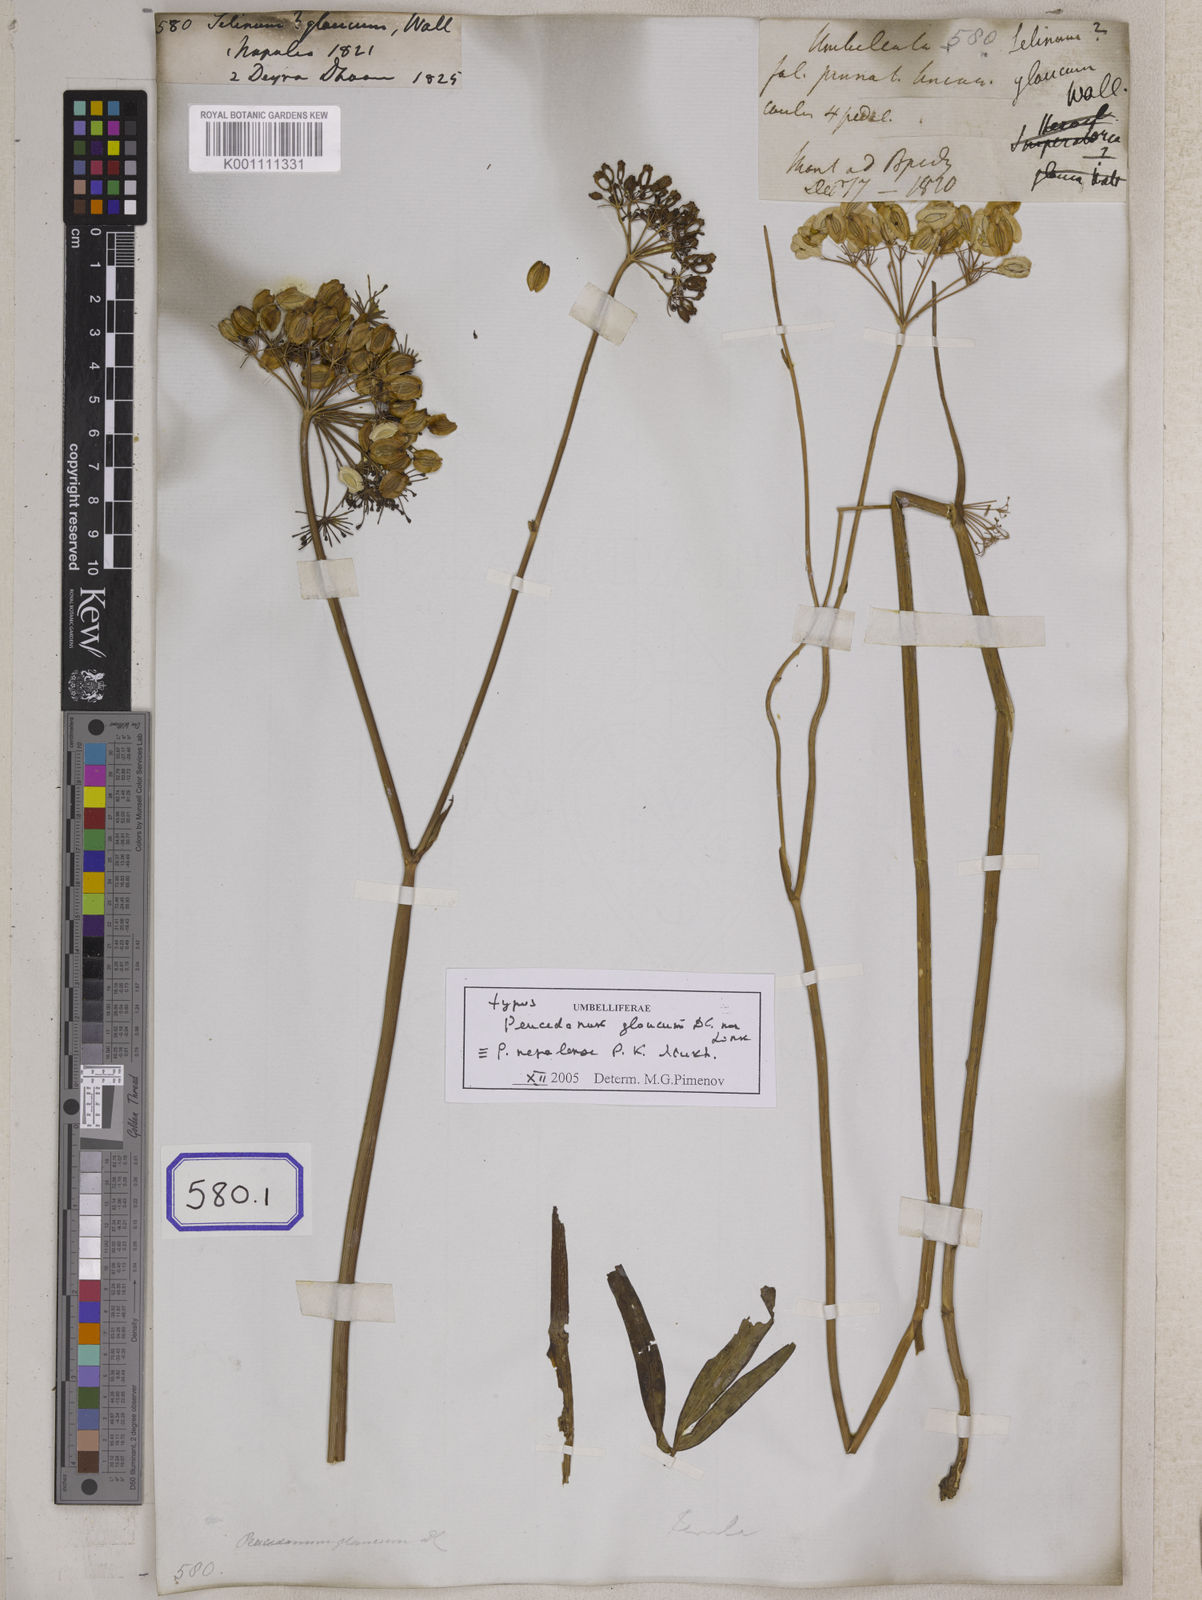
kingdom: Plantae
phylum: Tracheophyta
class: Magnoliopsida
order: Apiales
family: Apiaceae
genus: Selinum
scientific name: Selinum
